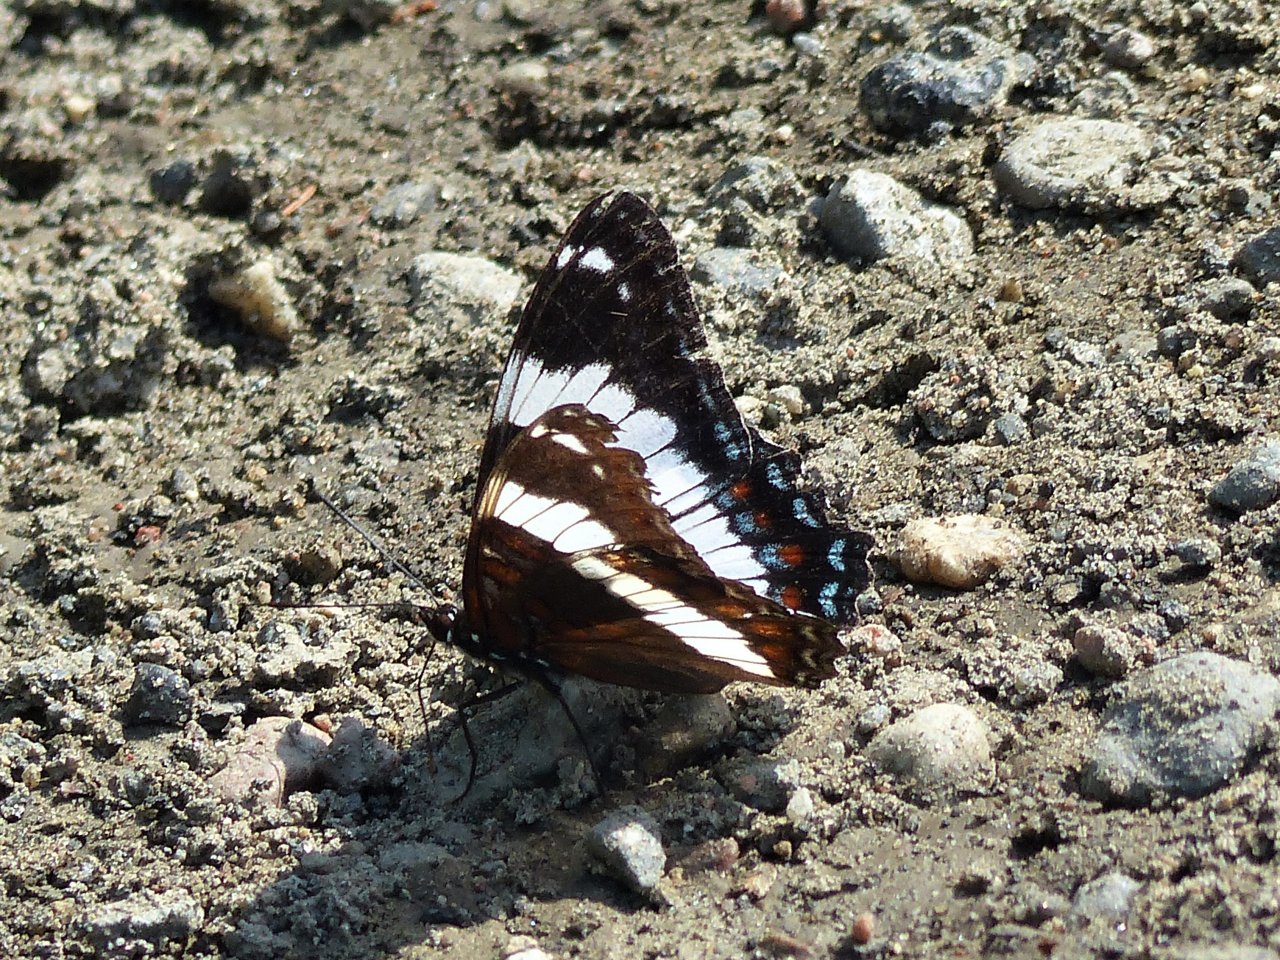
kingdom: Animalia
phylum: Arthropoda
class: Insecta
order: Lepidoptera
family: Nymphalidae
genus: Limenitis
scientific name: Limenitis arthemis
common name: Red-spotted Admiral
